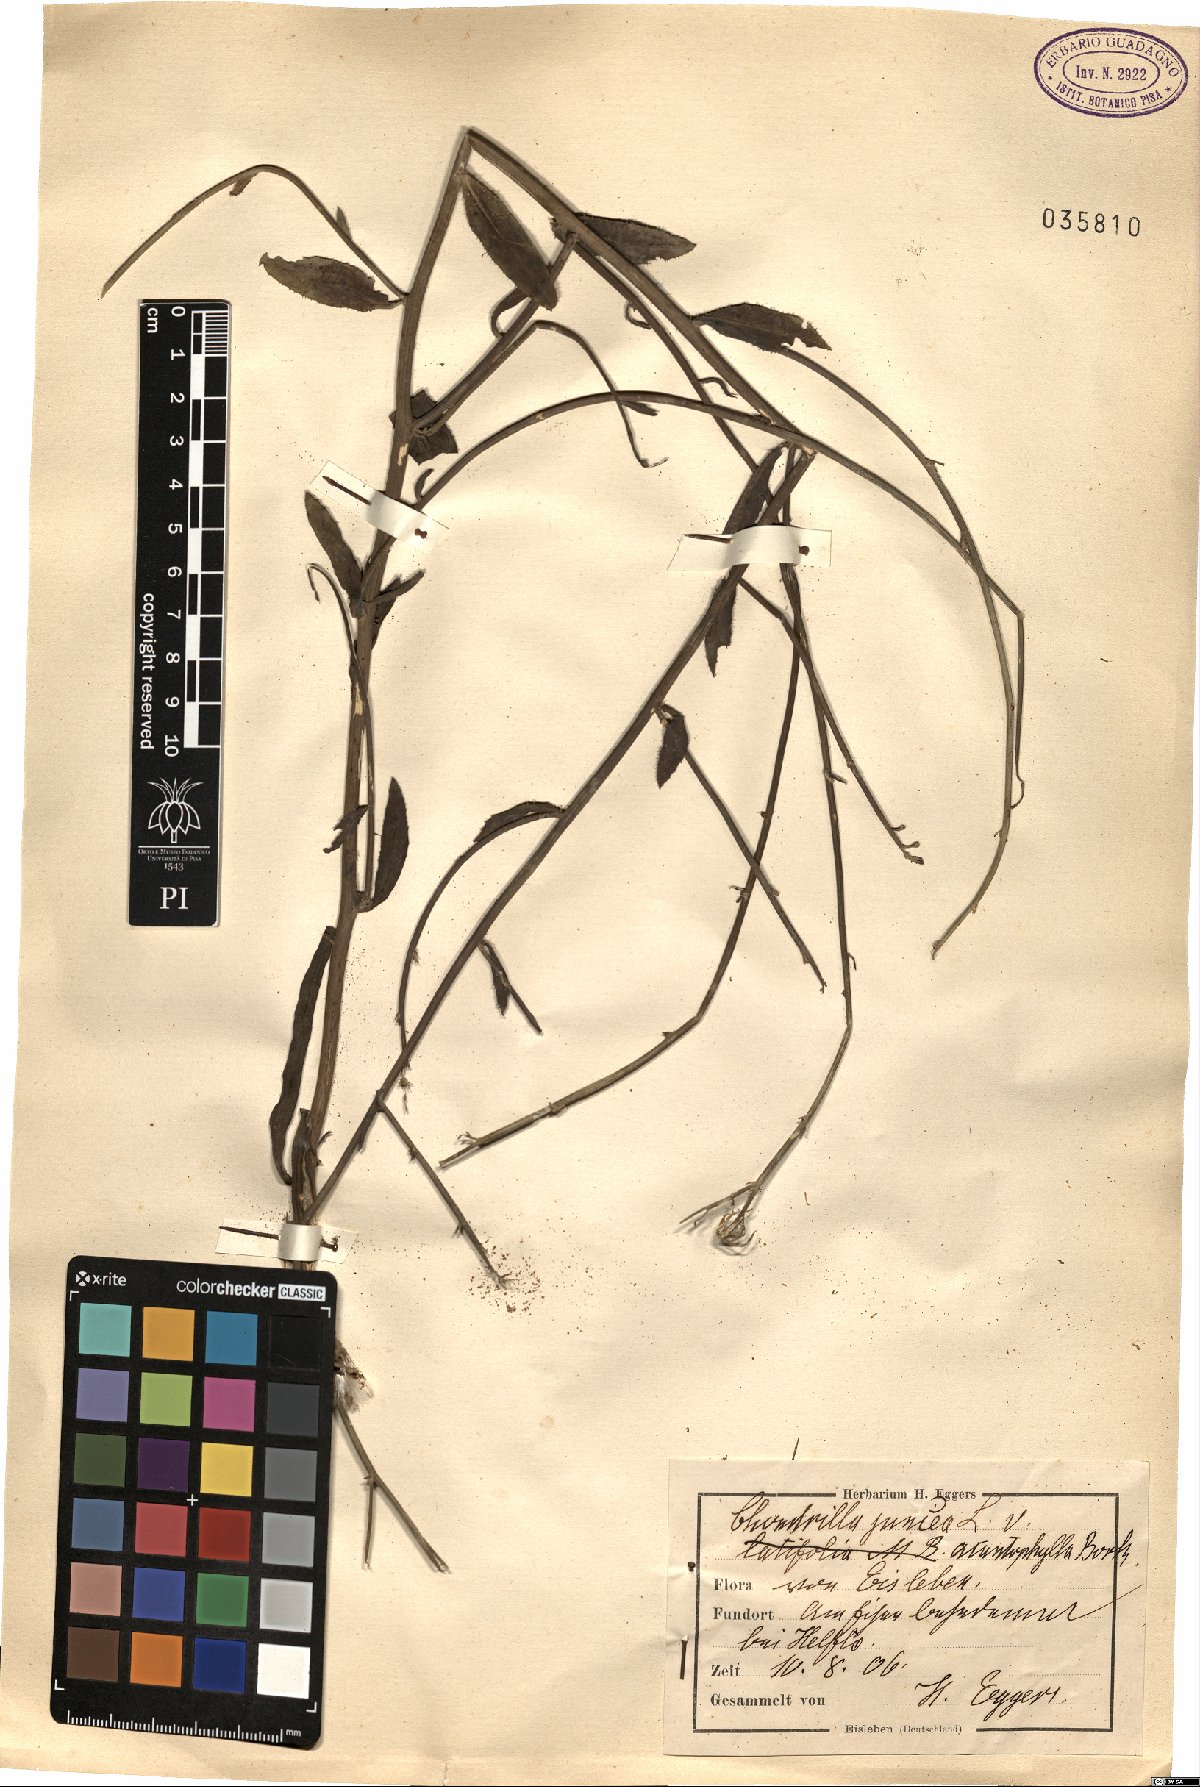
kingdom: Plantae
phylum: Tracheophyta
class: Magnoliopsida
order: Asterales
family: Asteraceae
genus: Chondrilla
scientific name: Chondrilla juncea
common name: Skeleton weed
